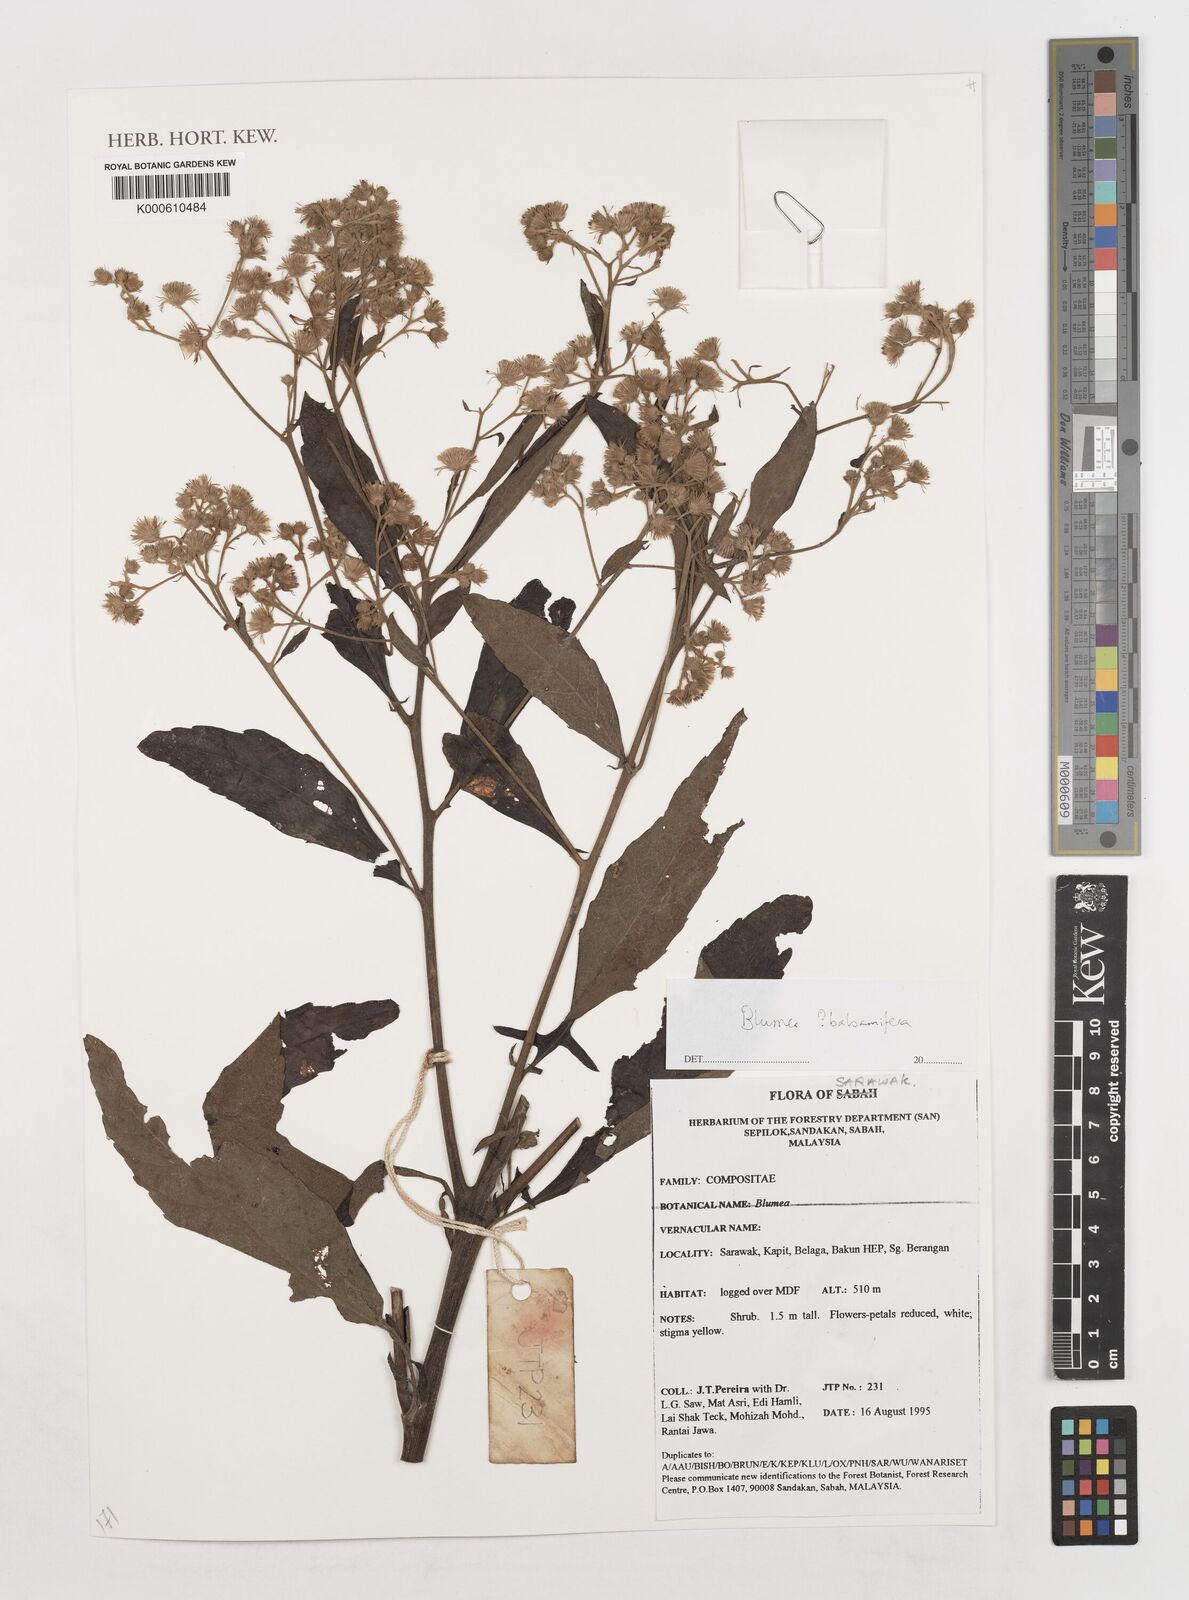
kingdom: Plantae
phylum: Tracheophyta
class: Magnoliopsida
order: Asterales
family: Asteraceae
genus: Blumea
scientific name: Blumea
